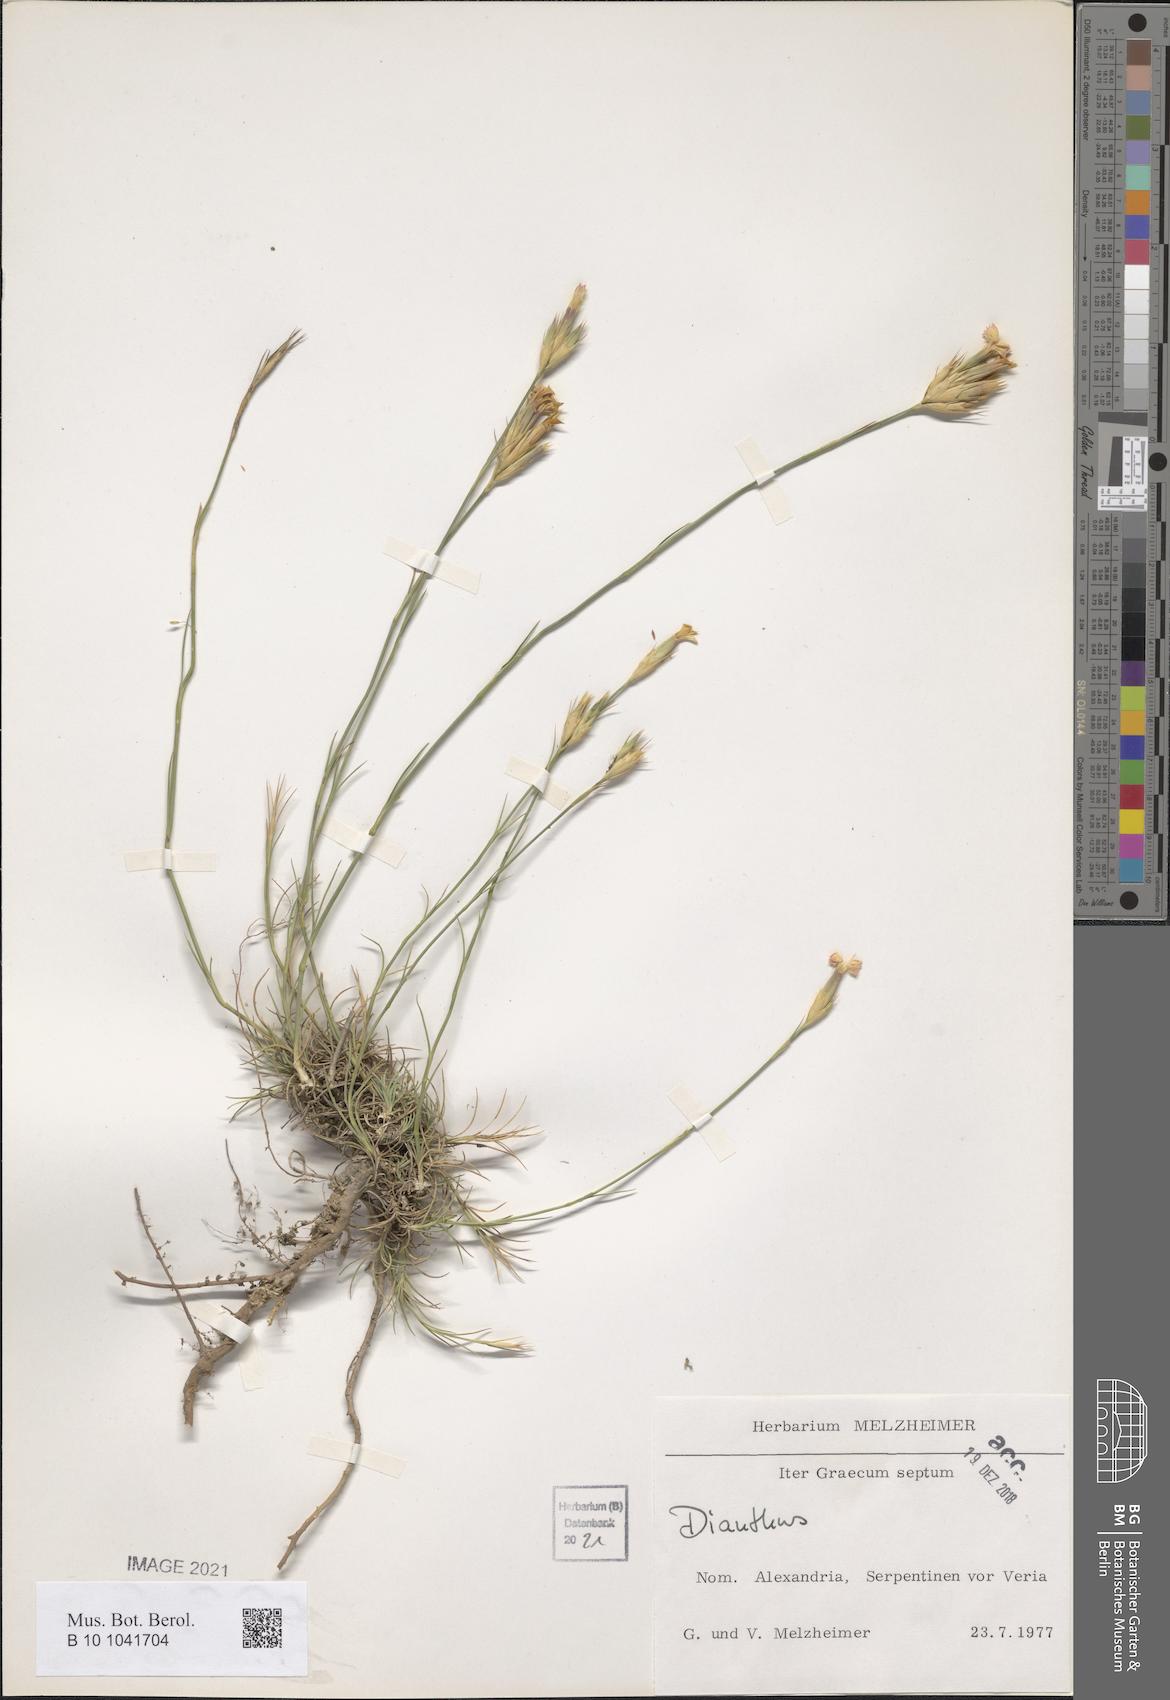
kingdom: Plantae
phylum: Tracheophyta
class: Magnoliopsida
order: Caryophyllales
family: Caryophyllaceae
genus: Dianthus
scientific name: Dianthus
